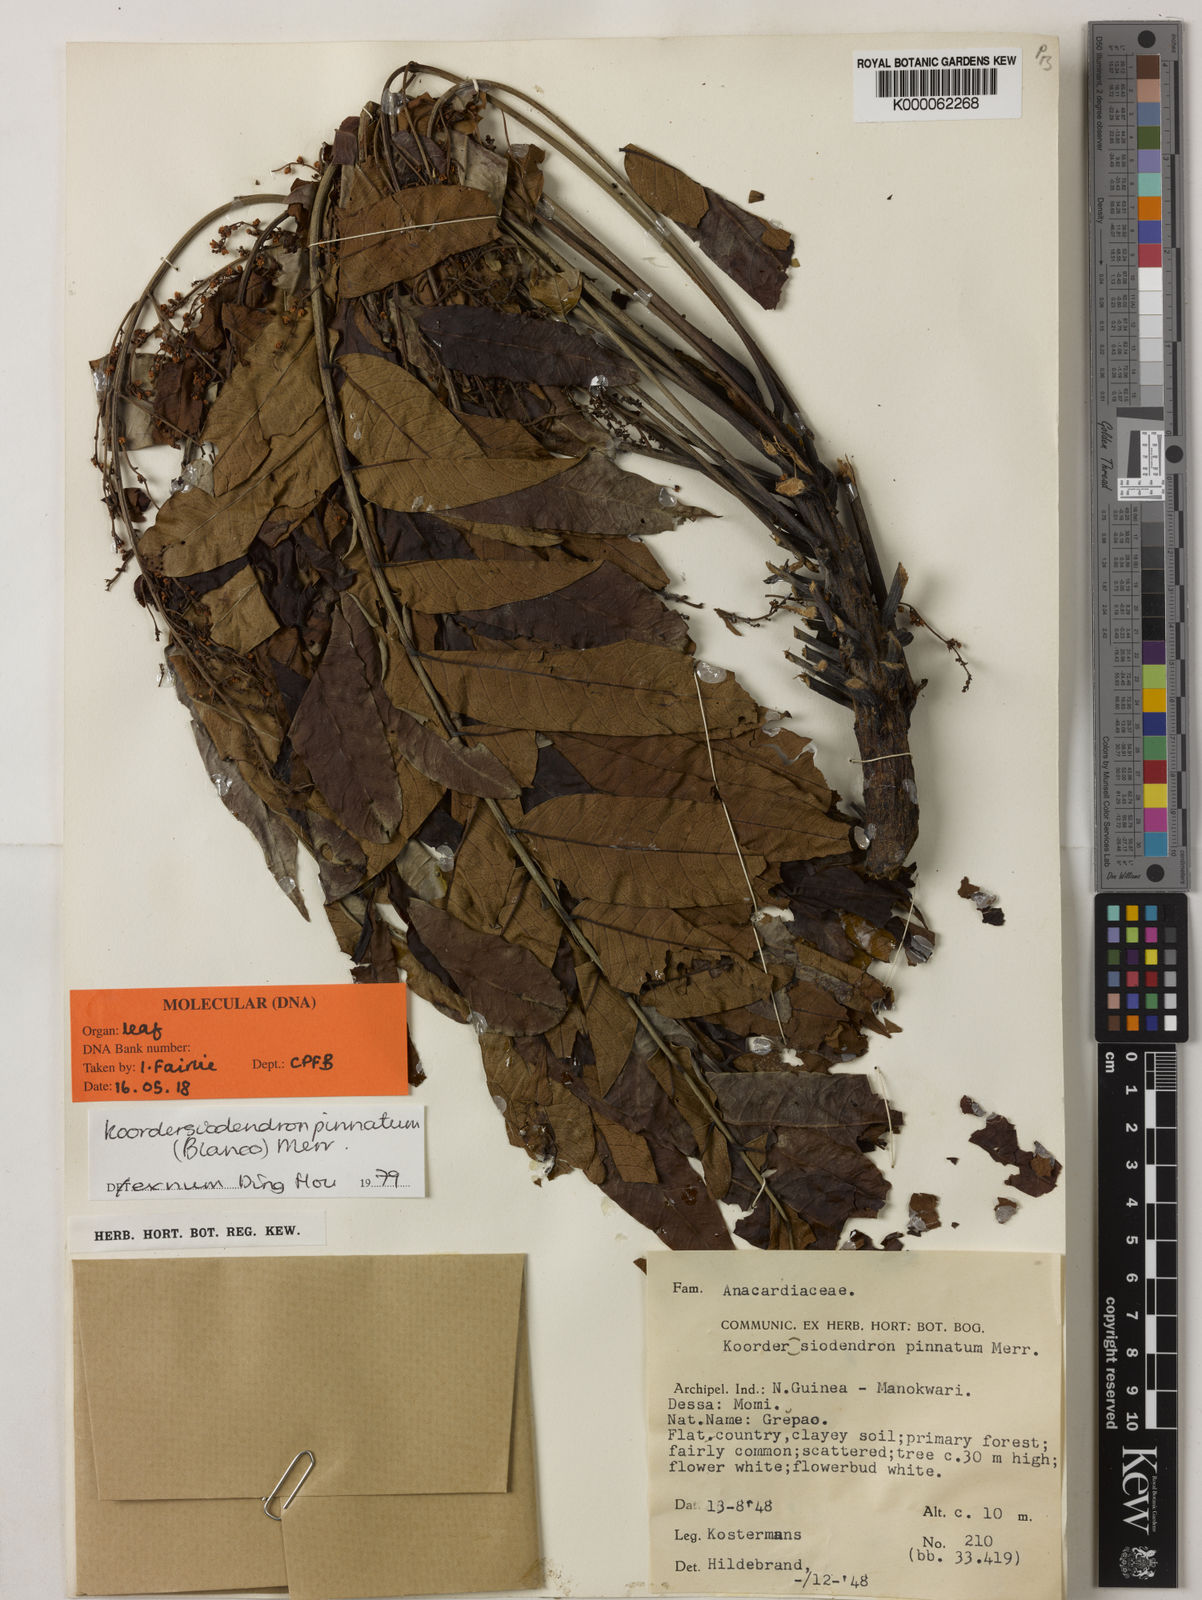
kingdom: Plantae
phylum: Tracheophyta
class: Magnoliopsida
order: Sapindales
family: Anacardiaceae
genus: Koordersiodendron
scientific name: Koordersiodendron pinnatum
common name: Ranggu
